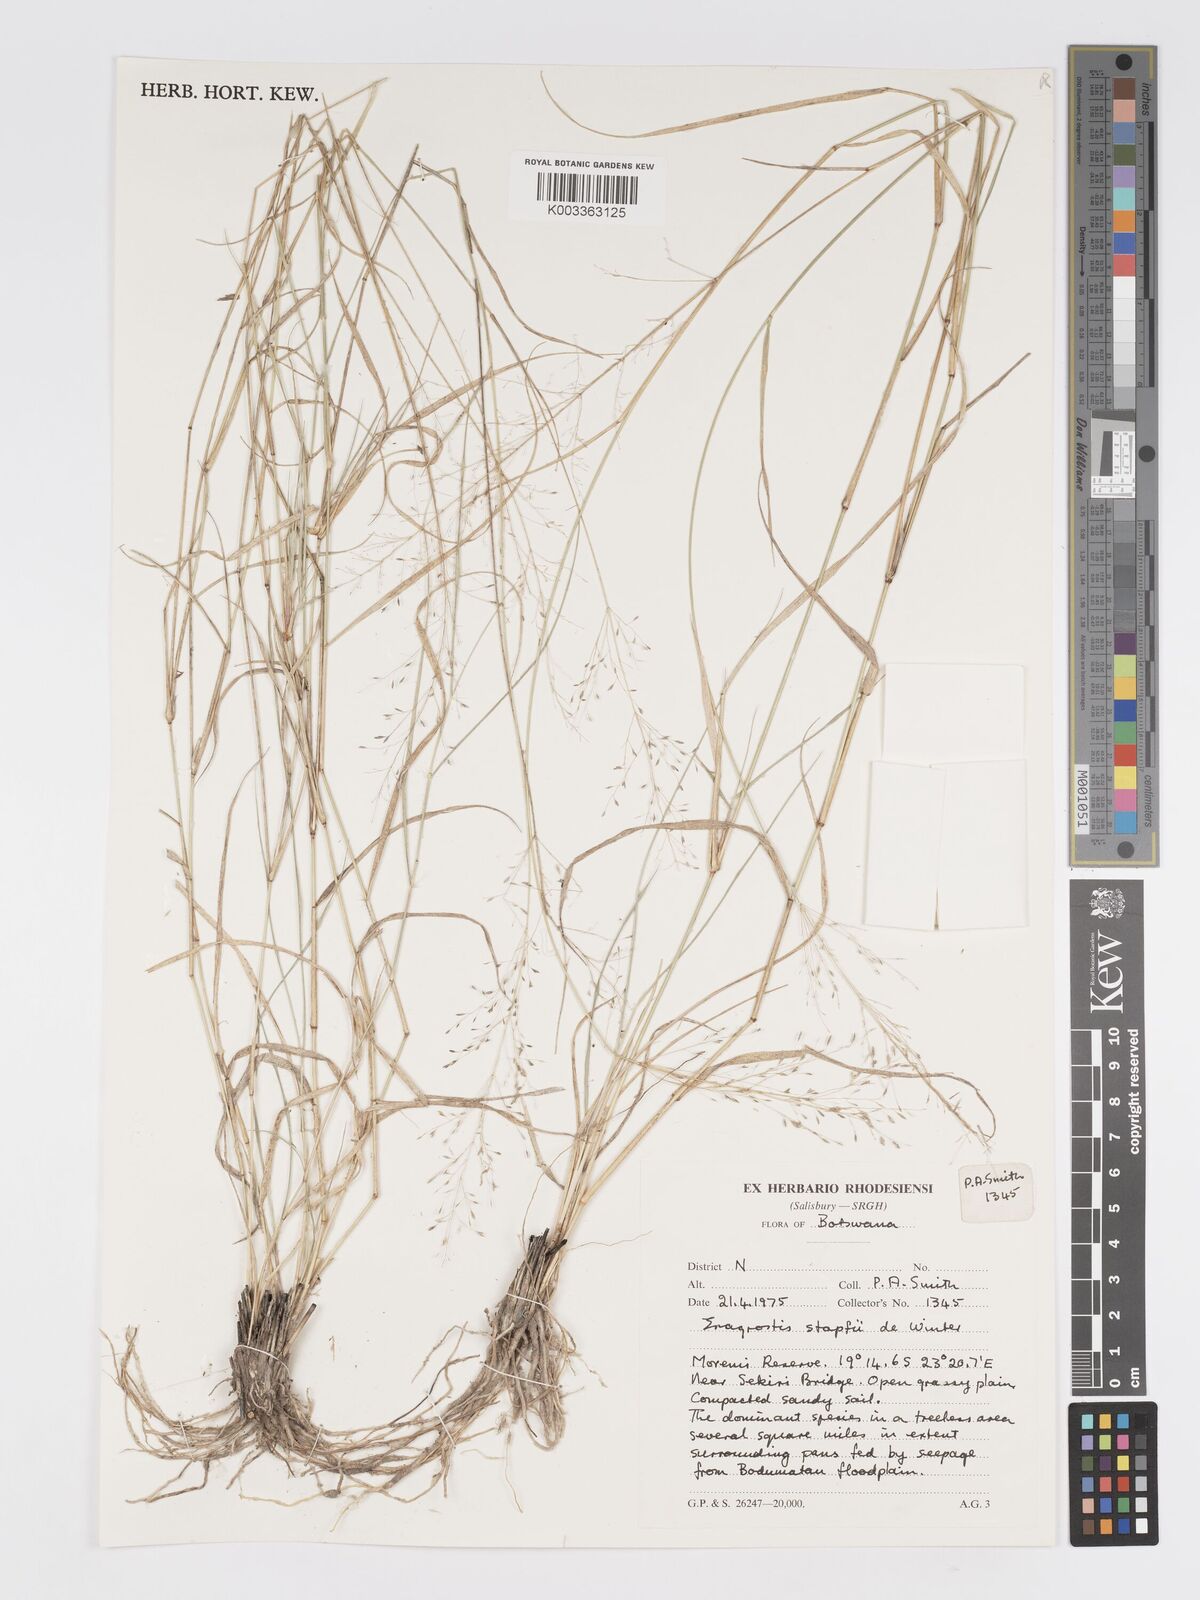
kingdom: Plantae
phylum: Tracheophyta
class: Liliopsida
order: Poales
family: Poaceae
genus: Eragrostis
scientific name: Eragrostis cylindriflora
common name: Cylinderflower lovegrass
